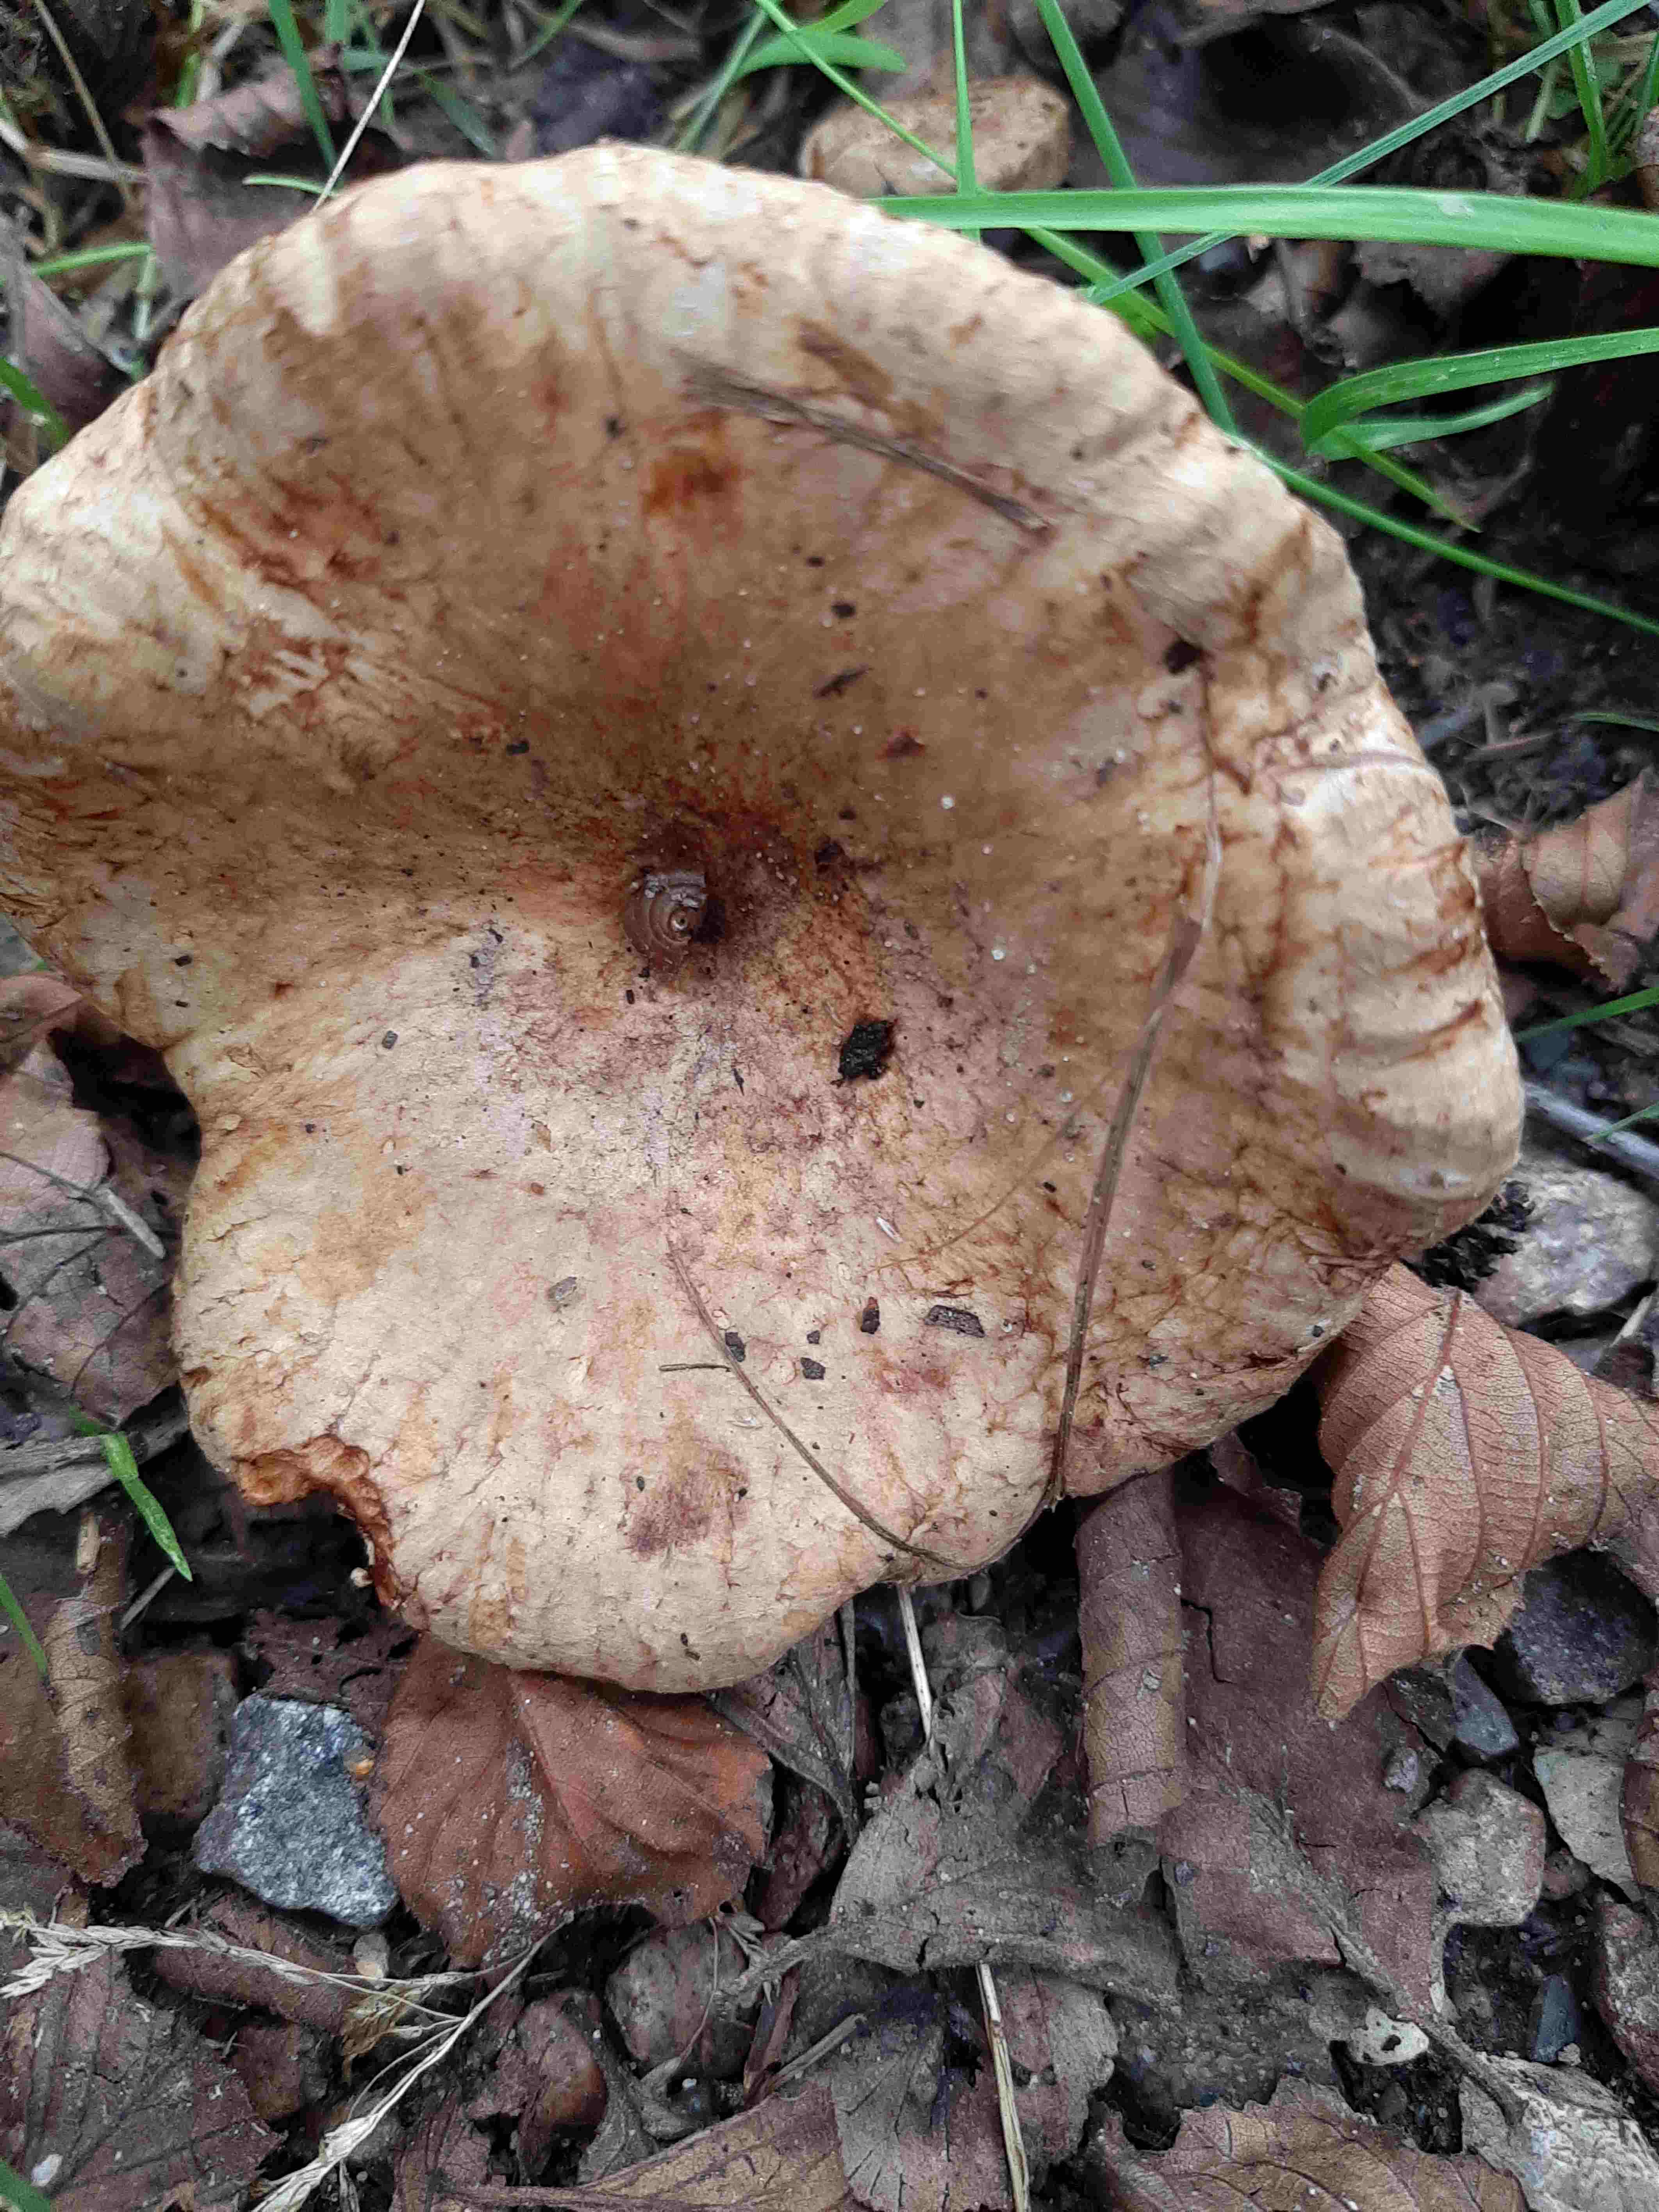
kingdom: Fungi
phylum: Basidiomycota
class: Agaricomycetes
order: Boletales
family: Paxillaceae
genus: Paxillus
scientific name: Paxillus rubicundulus
